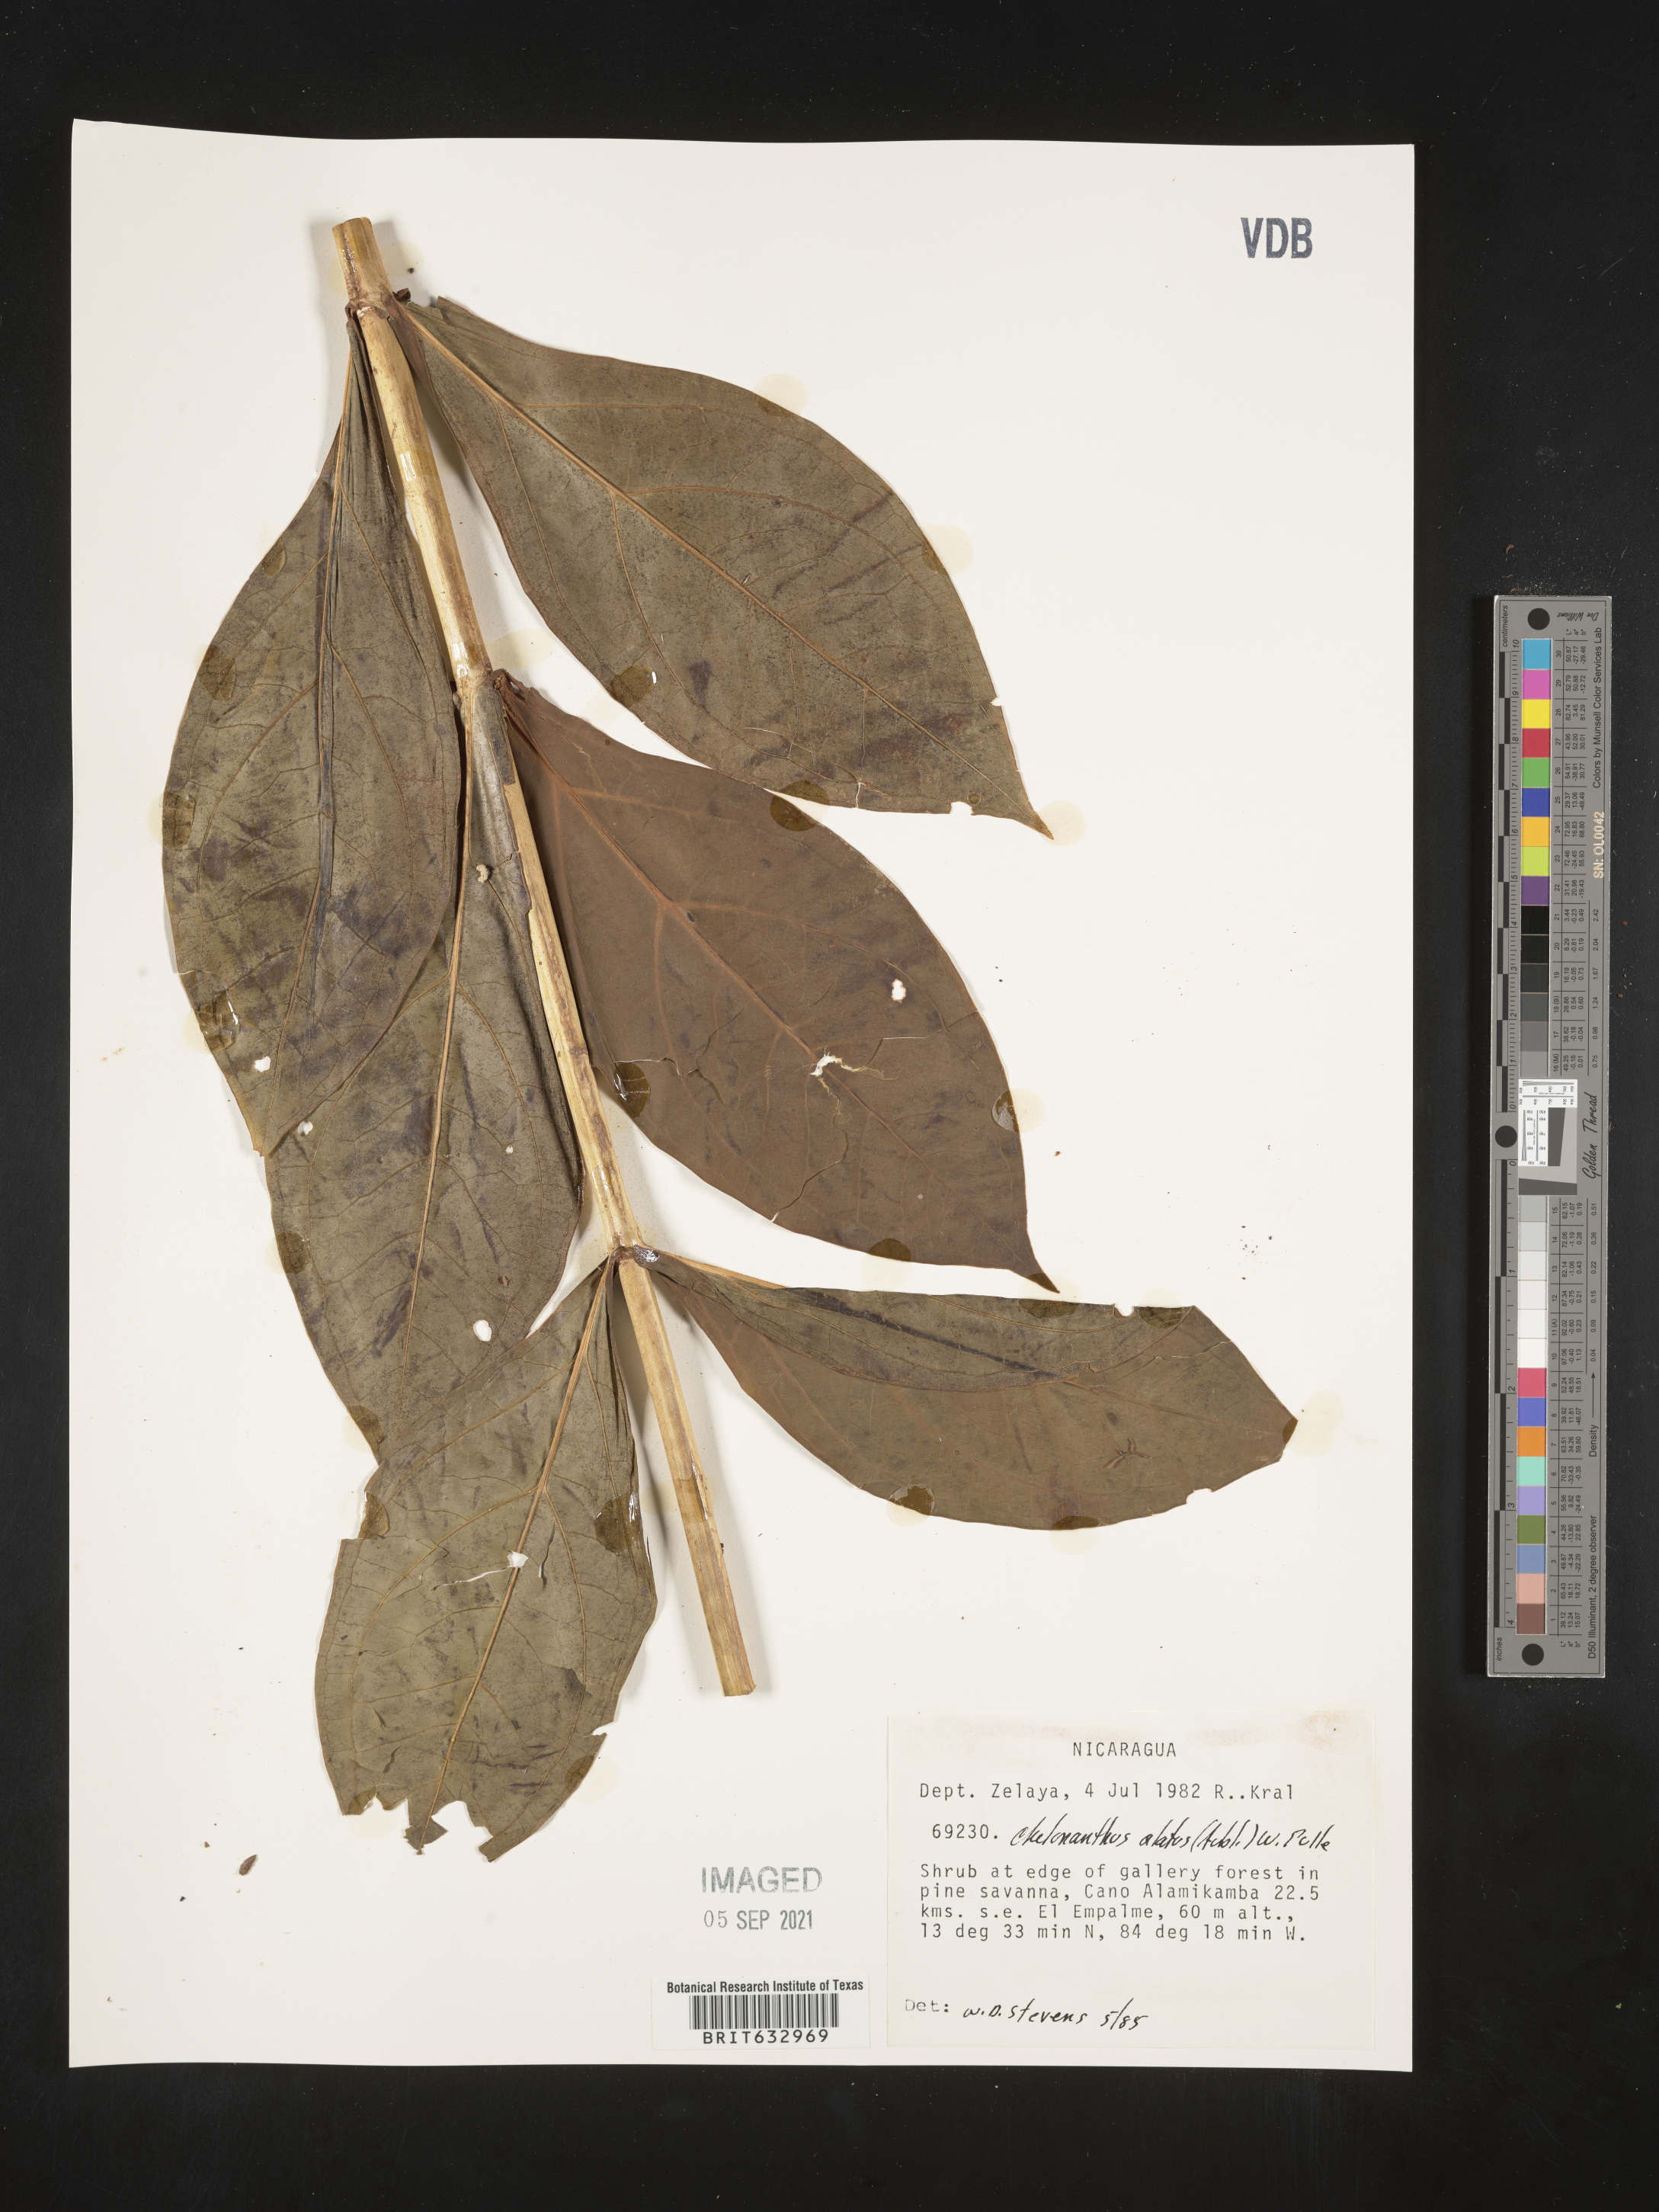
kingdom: Plantae
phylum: Tracheophyta
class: Magnoliopsida
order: Gentianales
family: Gentianaceae
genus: Chelonanthus
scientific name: Chelonanthus
